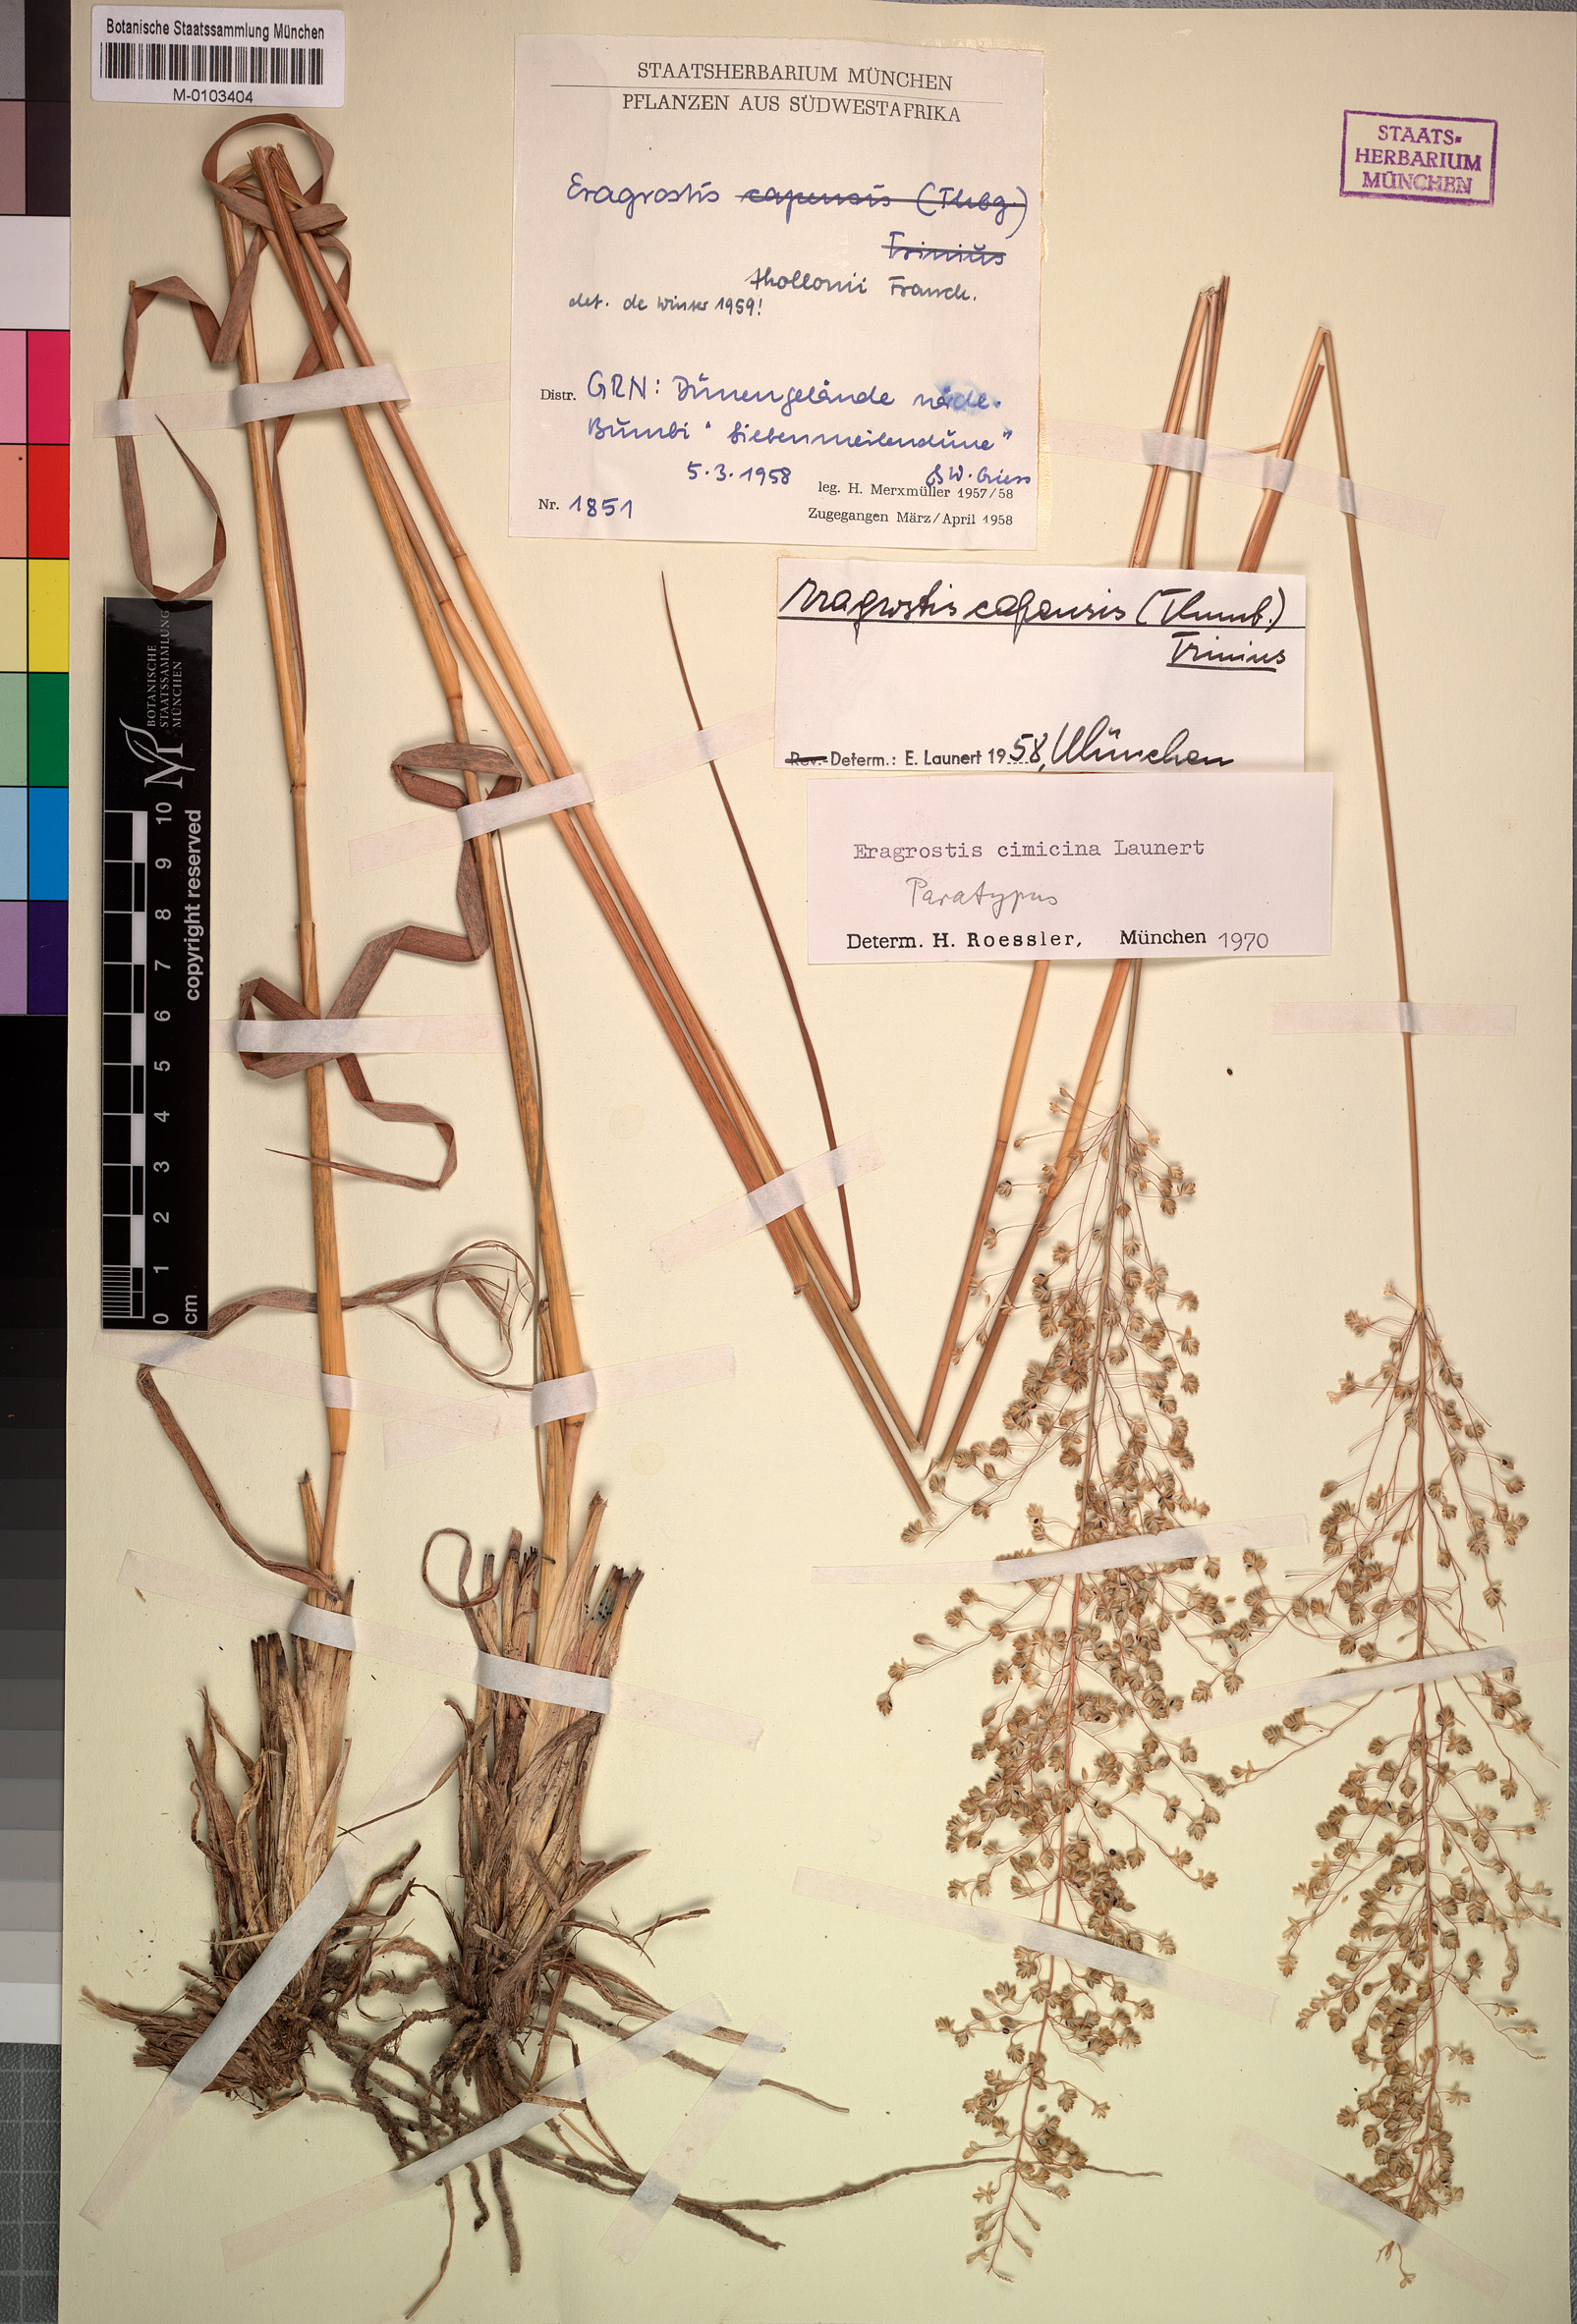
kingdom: Plantae
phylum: Tracheophyta
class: Liliopsida
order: Poales
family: Poaceae
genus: Eragrostis
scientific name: Eragrostis cimicina
